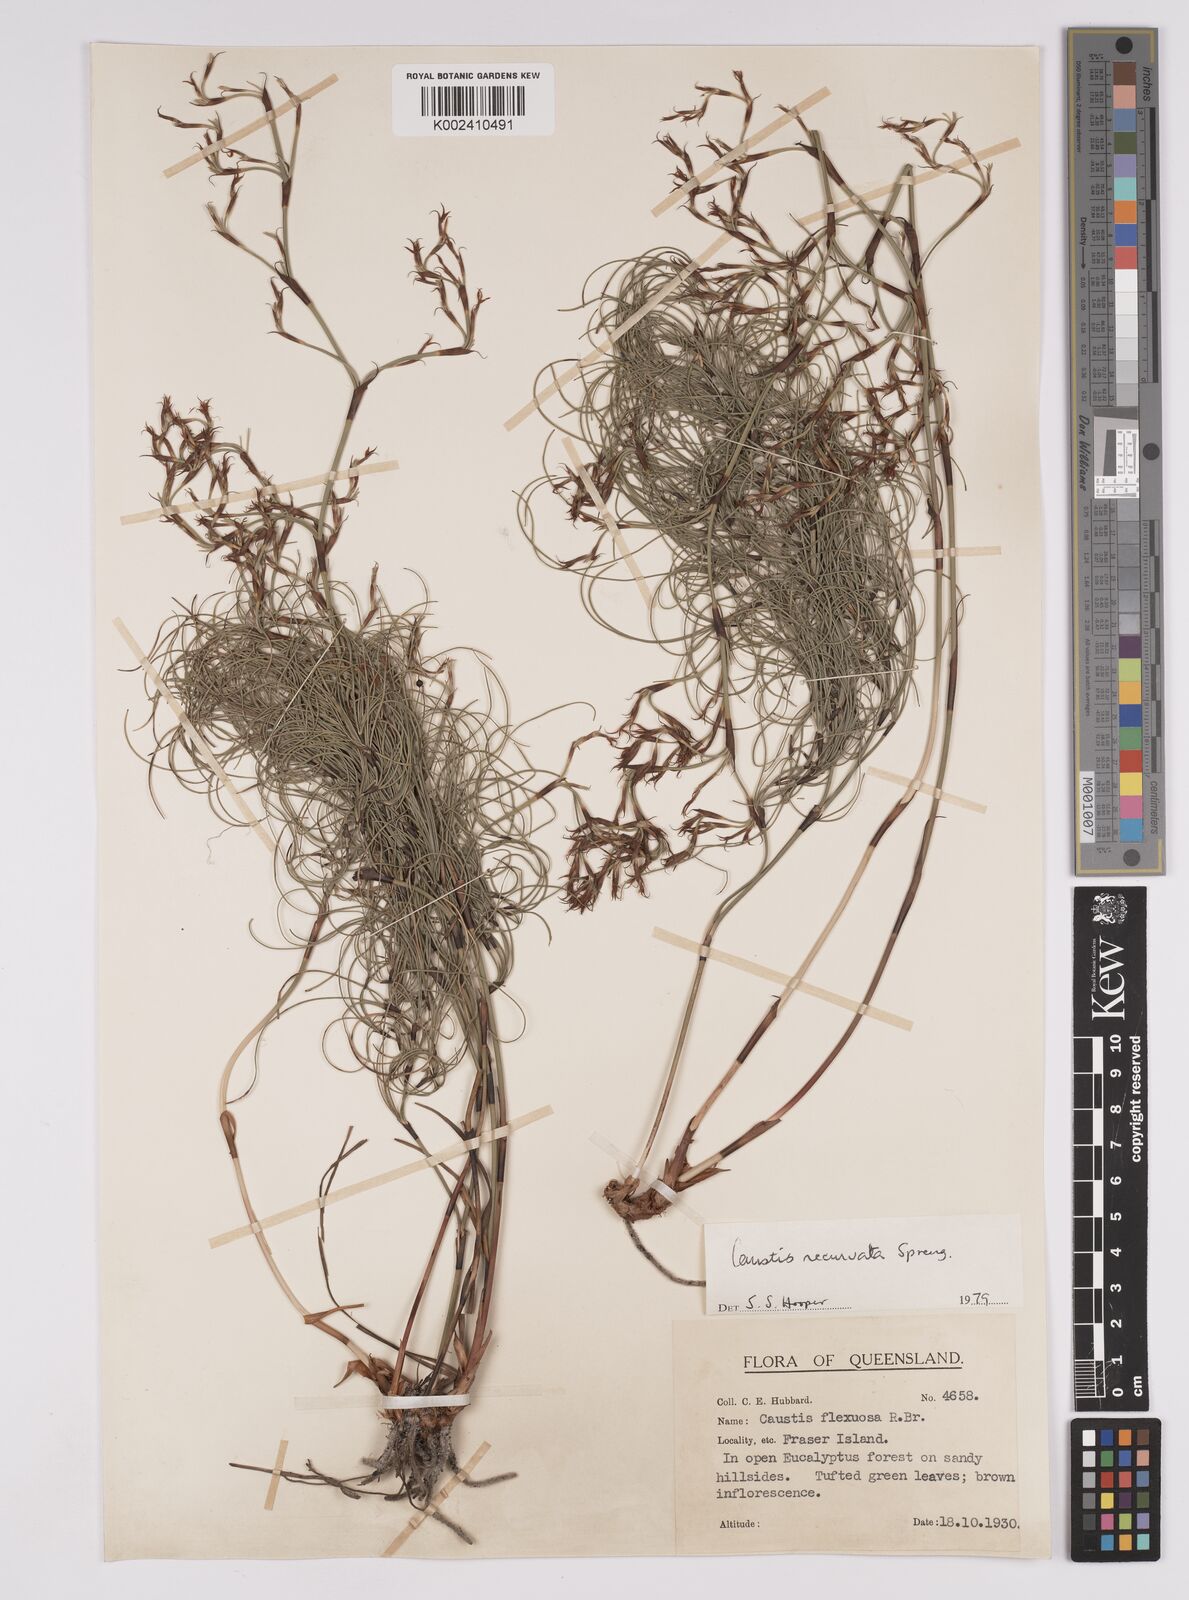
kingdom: Plantae
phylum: Tracheophyta
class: Liliopsida
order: Poales
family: Cyperaceae
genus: Caustis
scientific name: Caustis recurvata
